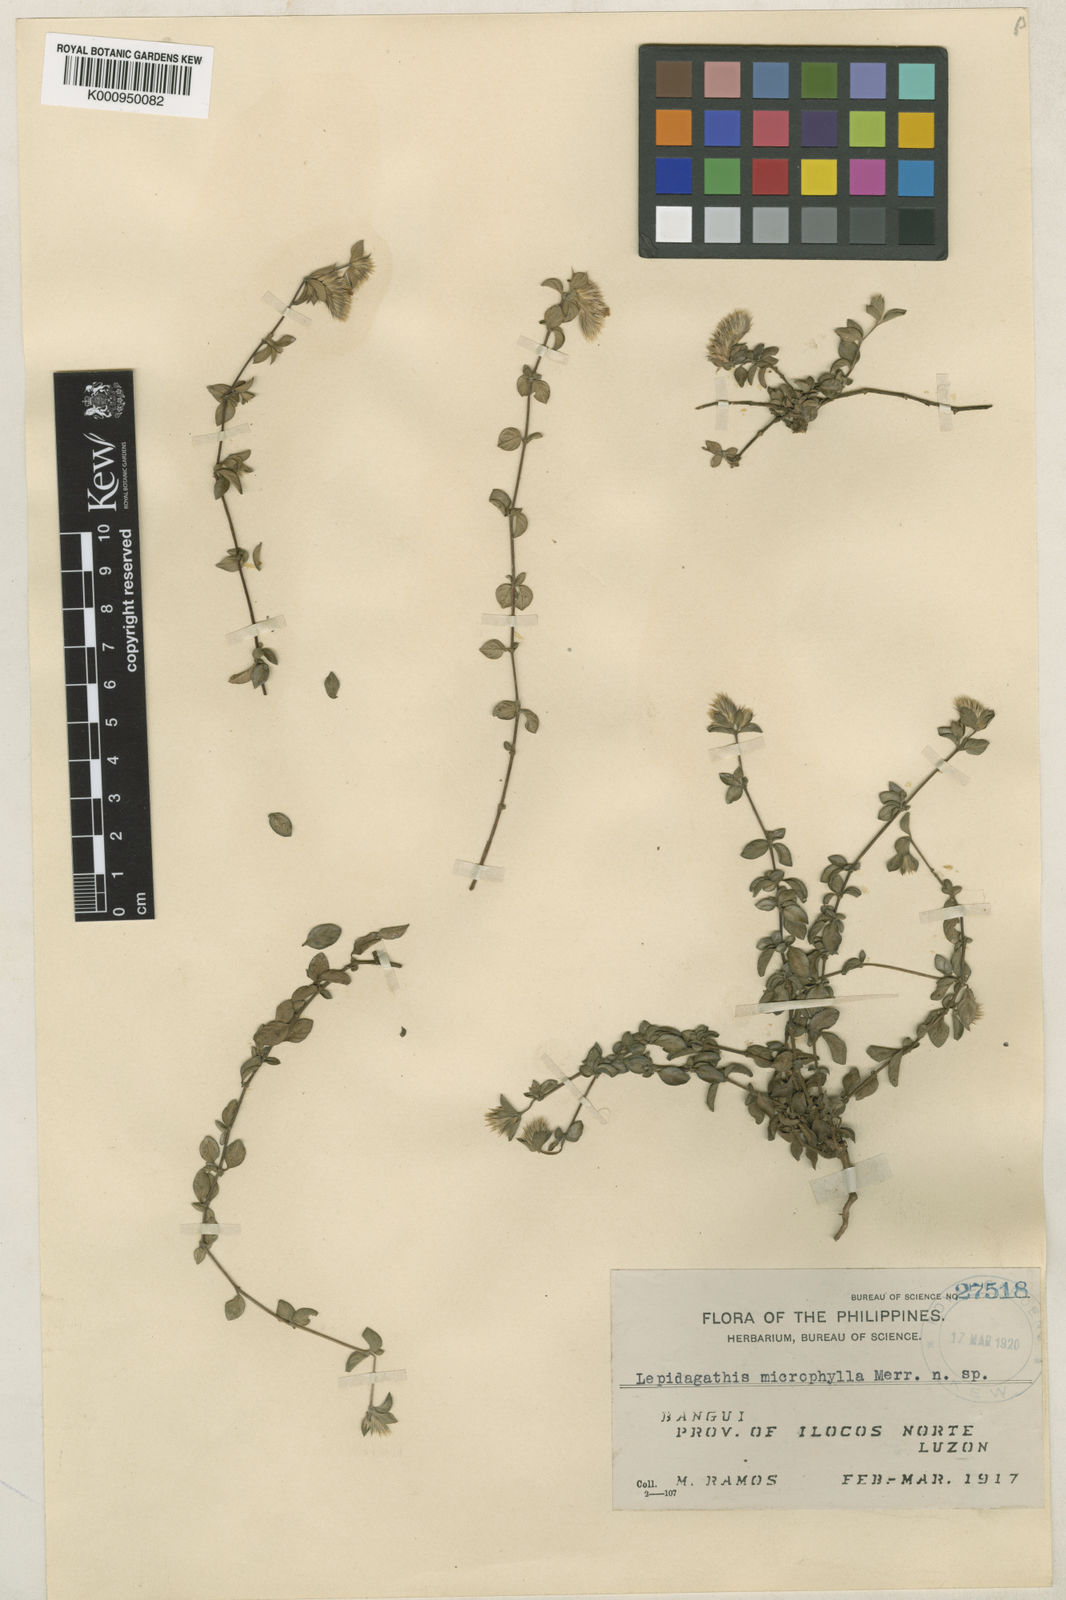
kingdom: Plantae
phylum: Tracheophyta
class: Magnoliopsida
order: Lamiales
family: Acanthaceae
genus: Lepidagathis
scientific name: Lepidagathis microphylla
